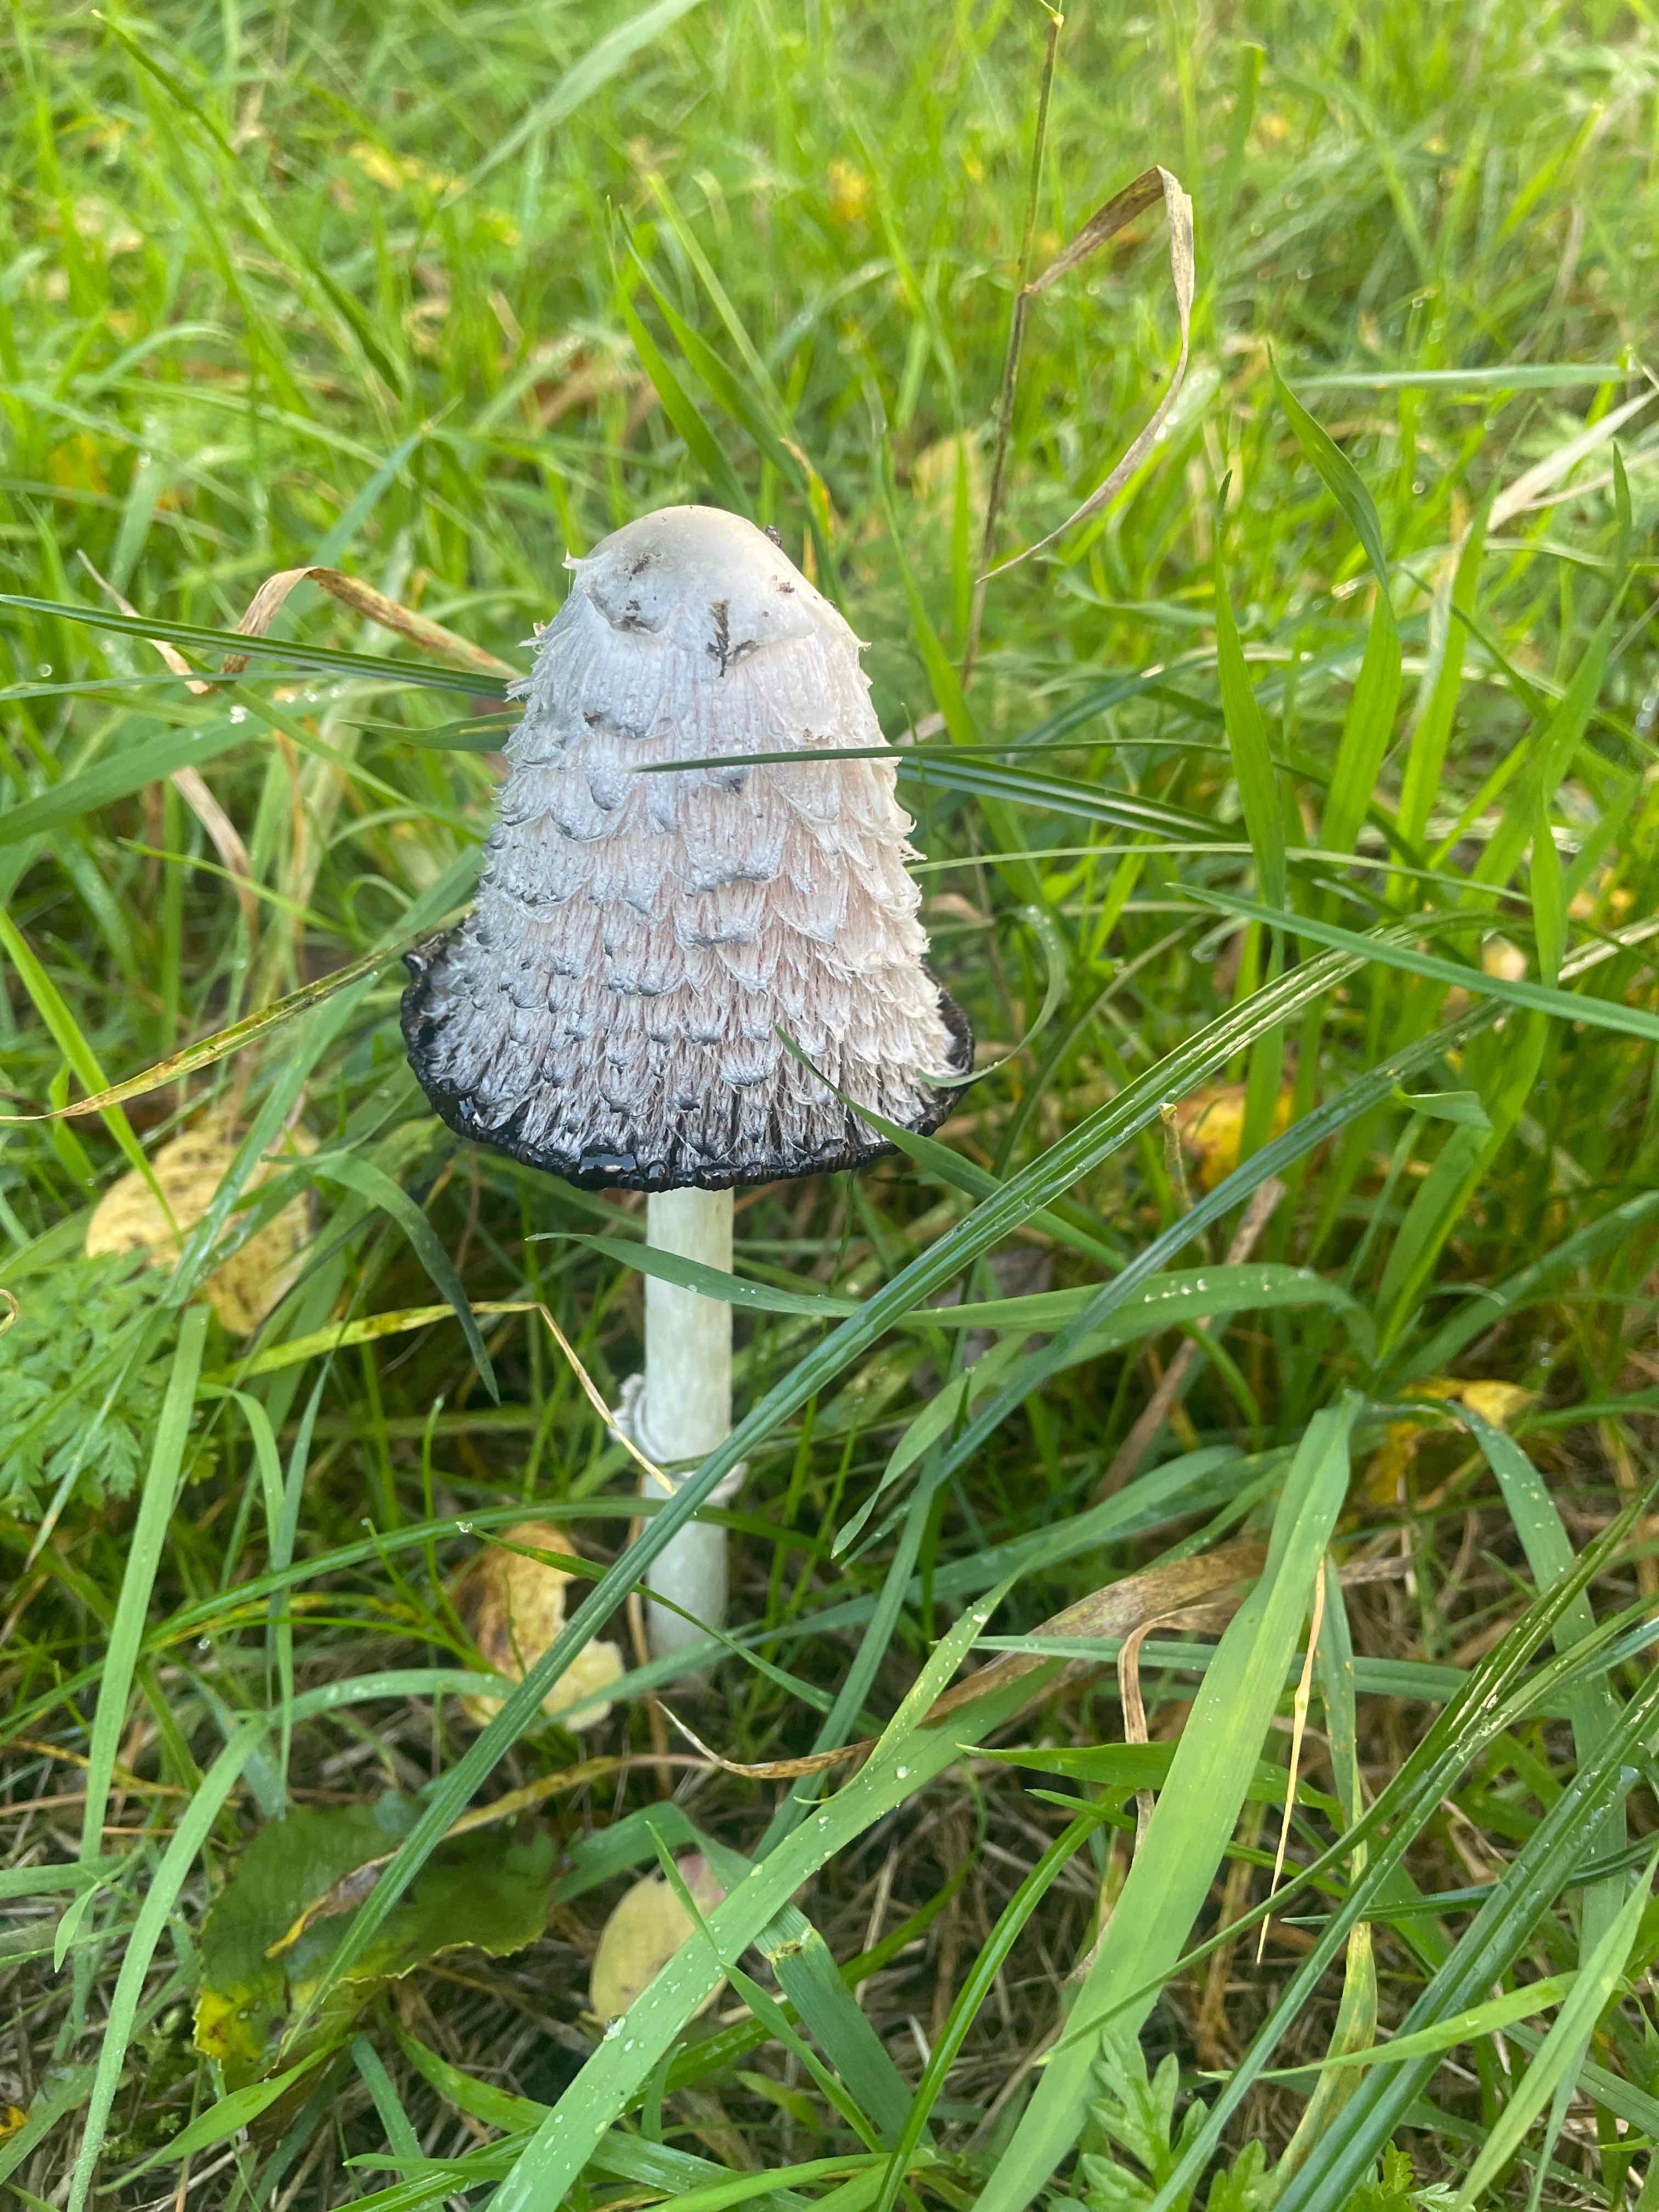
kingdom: Fungi
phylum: Basidiomycota
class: Agaricomycetes
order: Agaricales
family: Agaricaceae
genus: Coprinus
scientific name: Coprinus comatus
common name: stor parykhat
